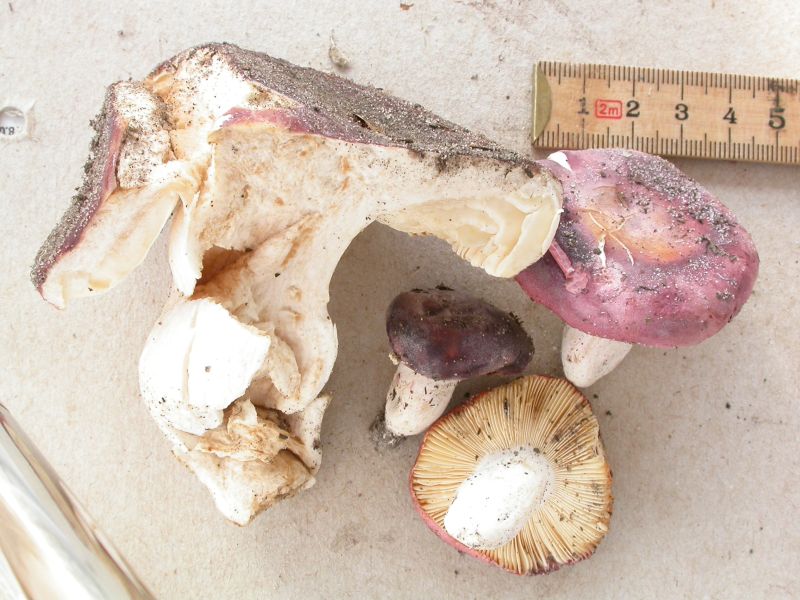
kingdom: Fungi
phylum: Basidiomycota
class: Agaricomycetes
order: Russulales
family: Russulaceae
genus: Russula
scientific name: Russula turci
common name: jod-skørhat
